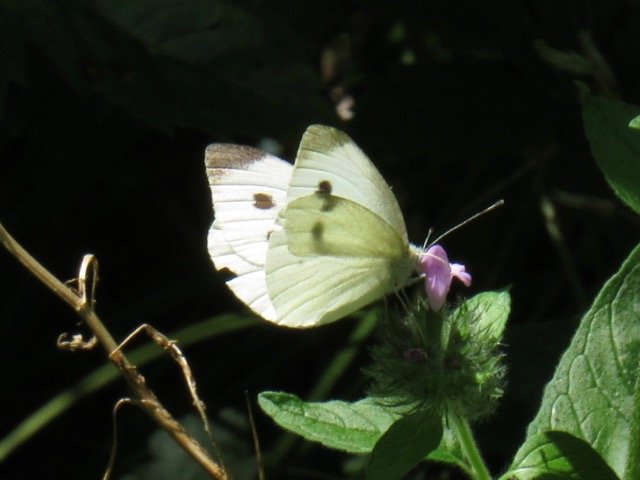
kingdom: Animalia
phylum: Arthropoda
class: Insecta
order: Lepidoptera
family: Pieridae
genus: Pieris
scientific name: Pieris rapae
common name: Cabbage White
